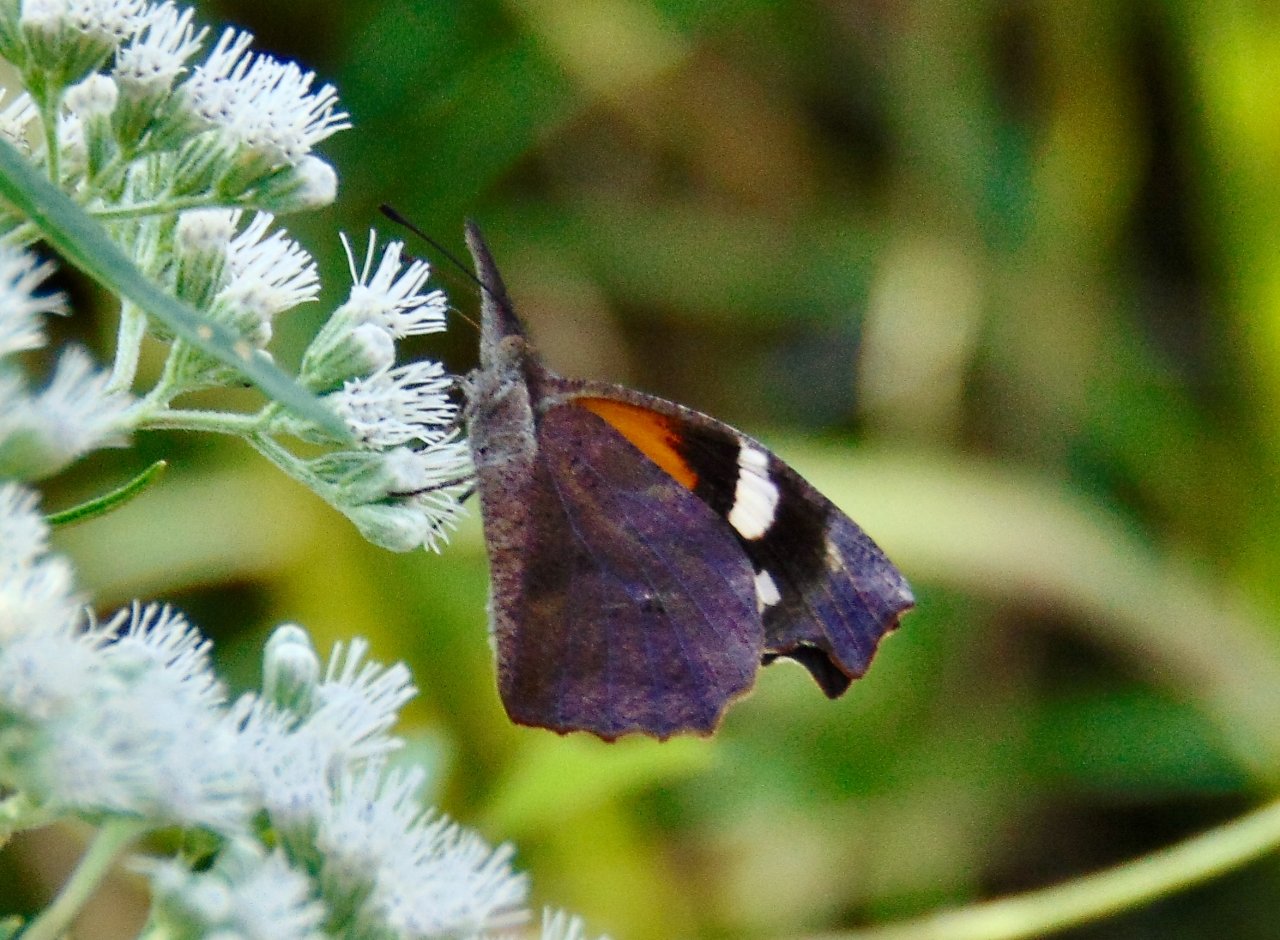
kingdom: Animalia
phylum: Arthropoda
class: Insecta
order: Lepidoptera
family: Nymphalidae
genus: Libytheana
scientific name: Libytheana carinenta
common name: American Snout
